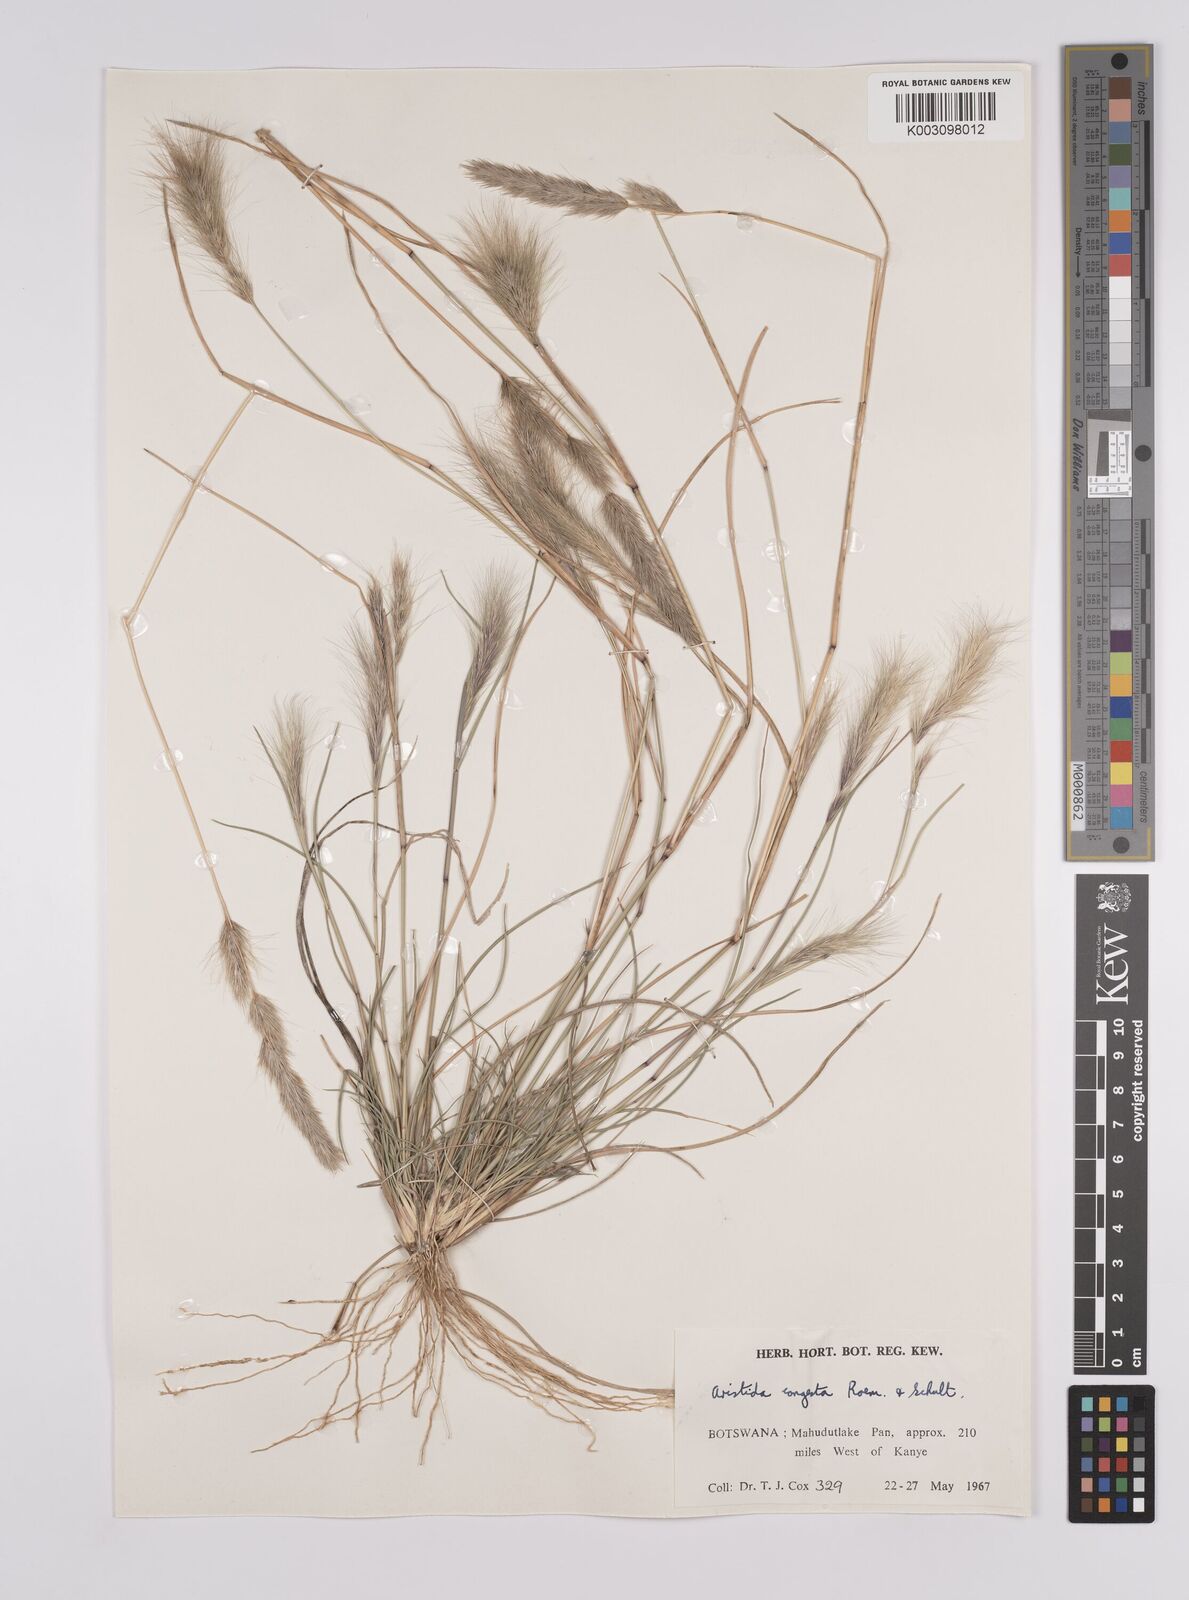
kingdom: Plantae
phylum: Tracheophyta
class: Liliopsida
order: Poales
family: Poaceae
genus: Aristida
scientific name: Aristida congesta
